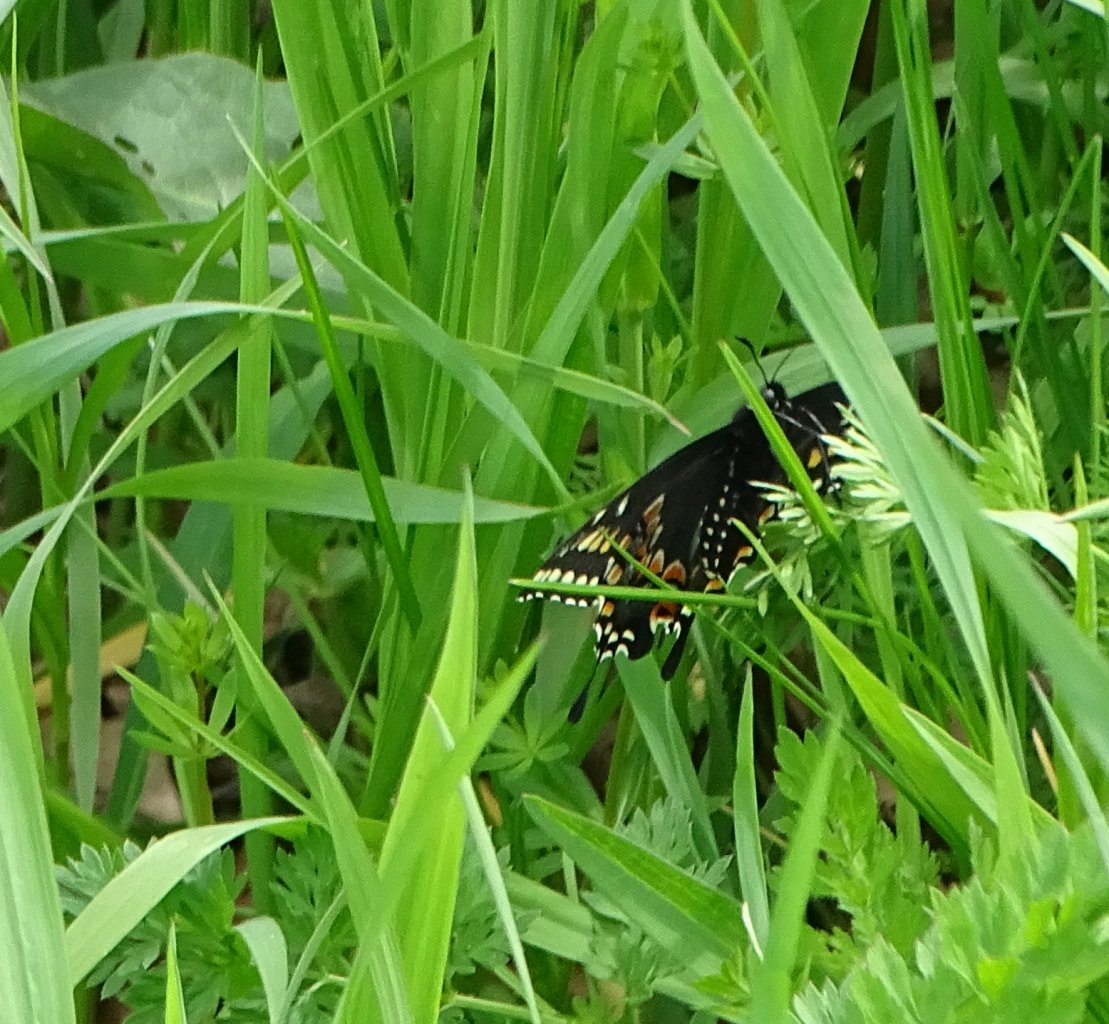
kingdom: Animalia
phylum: Arthropoda
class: Insecta
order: Lepidoptera
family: Papilionidae
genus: Papilio
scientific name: Papilio polyxenes
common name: Black Swallowtail
